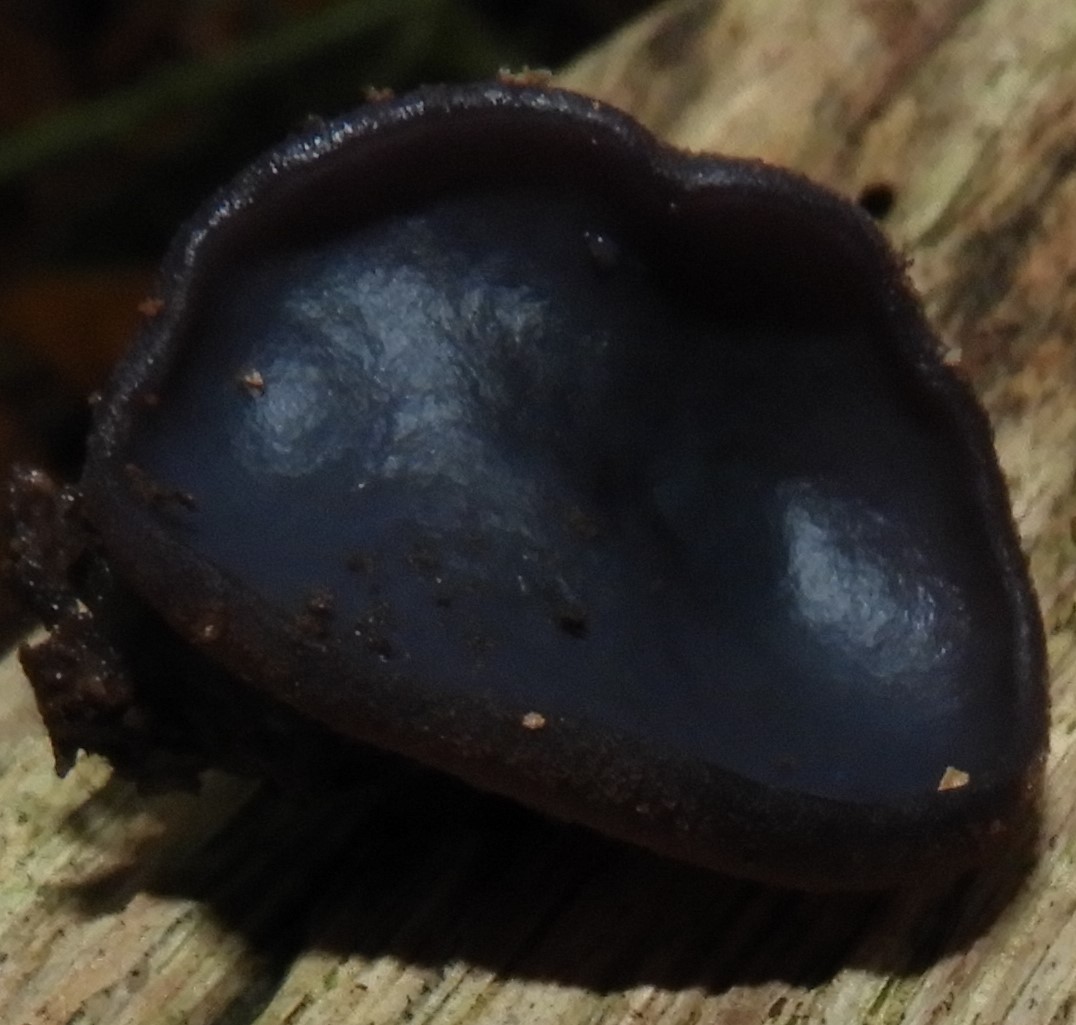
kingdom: Fungi
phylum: Ascomycota
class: Pezizomycetes
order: Pezizales
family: Pezizaceae
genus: Peziza
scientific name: Peziza saniosa
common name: blåmælket bægersvamp
